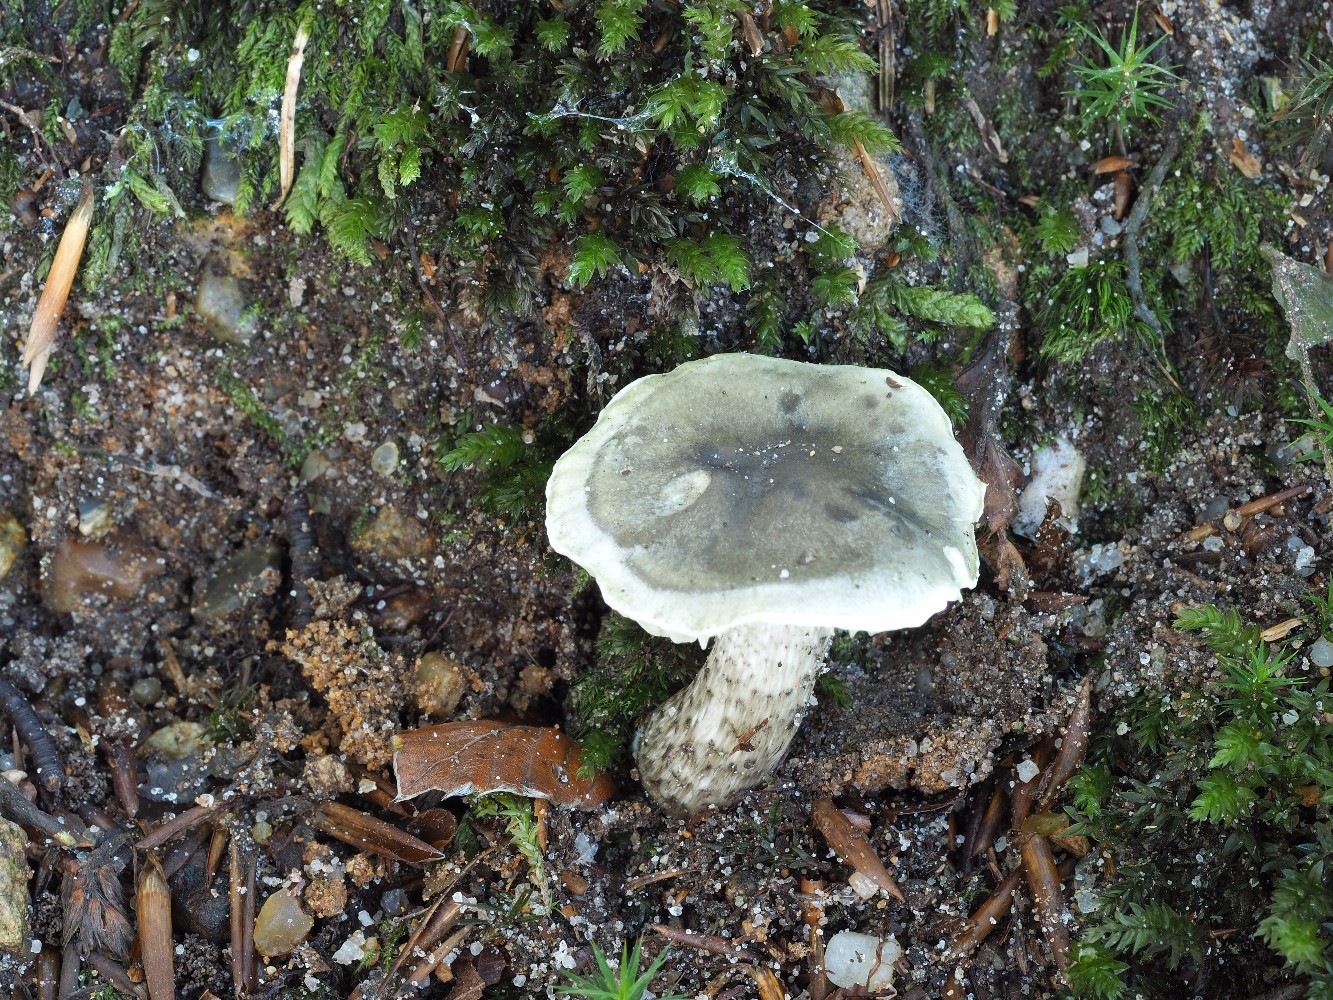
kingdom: Fungi
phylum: Basidiomycota
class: Agaricomycetes
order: Agaricales
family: Tricholomataceae
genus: Tricholoma
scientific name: Tricholoma saponaceum
